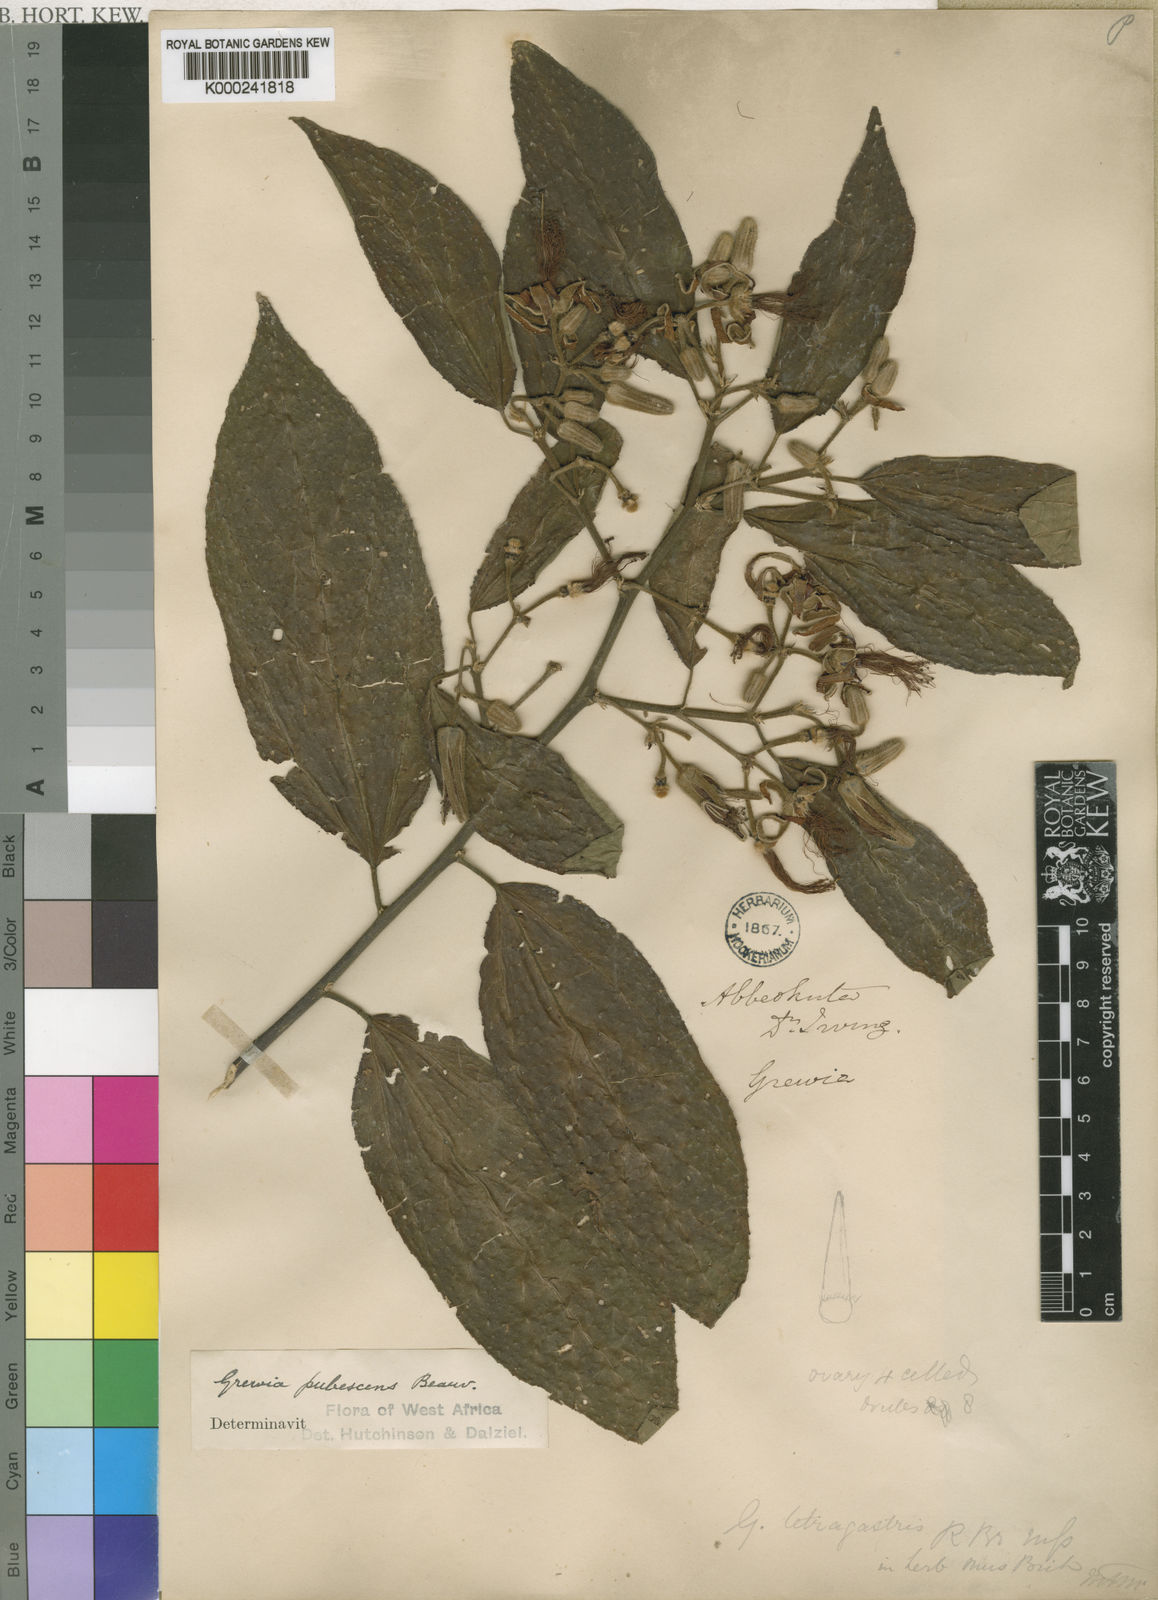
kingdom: Plantae
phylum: Tracheophyta
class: Magnoliopsida
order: Malvales
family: Malvaceae
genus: Grewia
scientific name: Grewia pubescens
